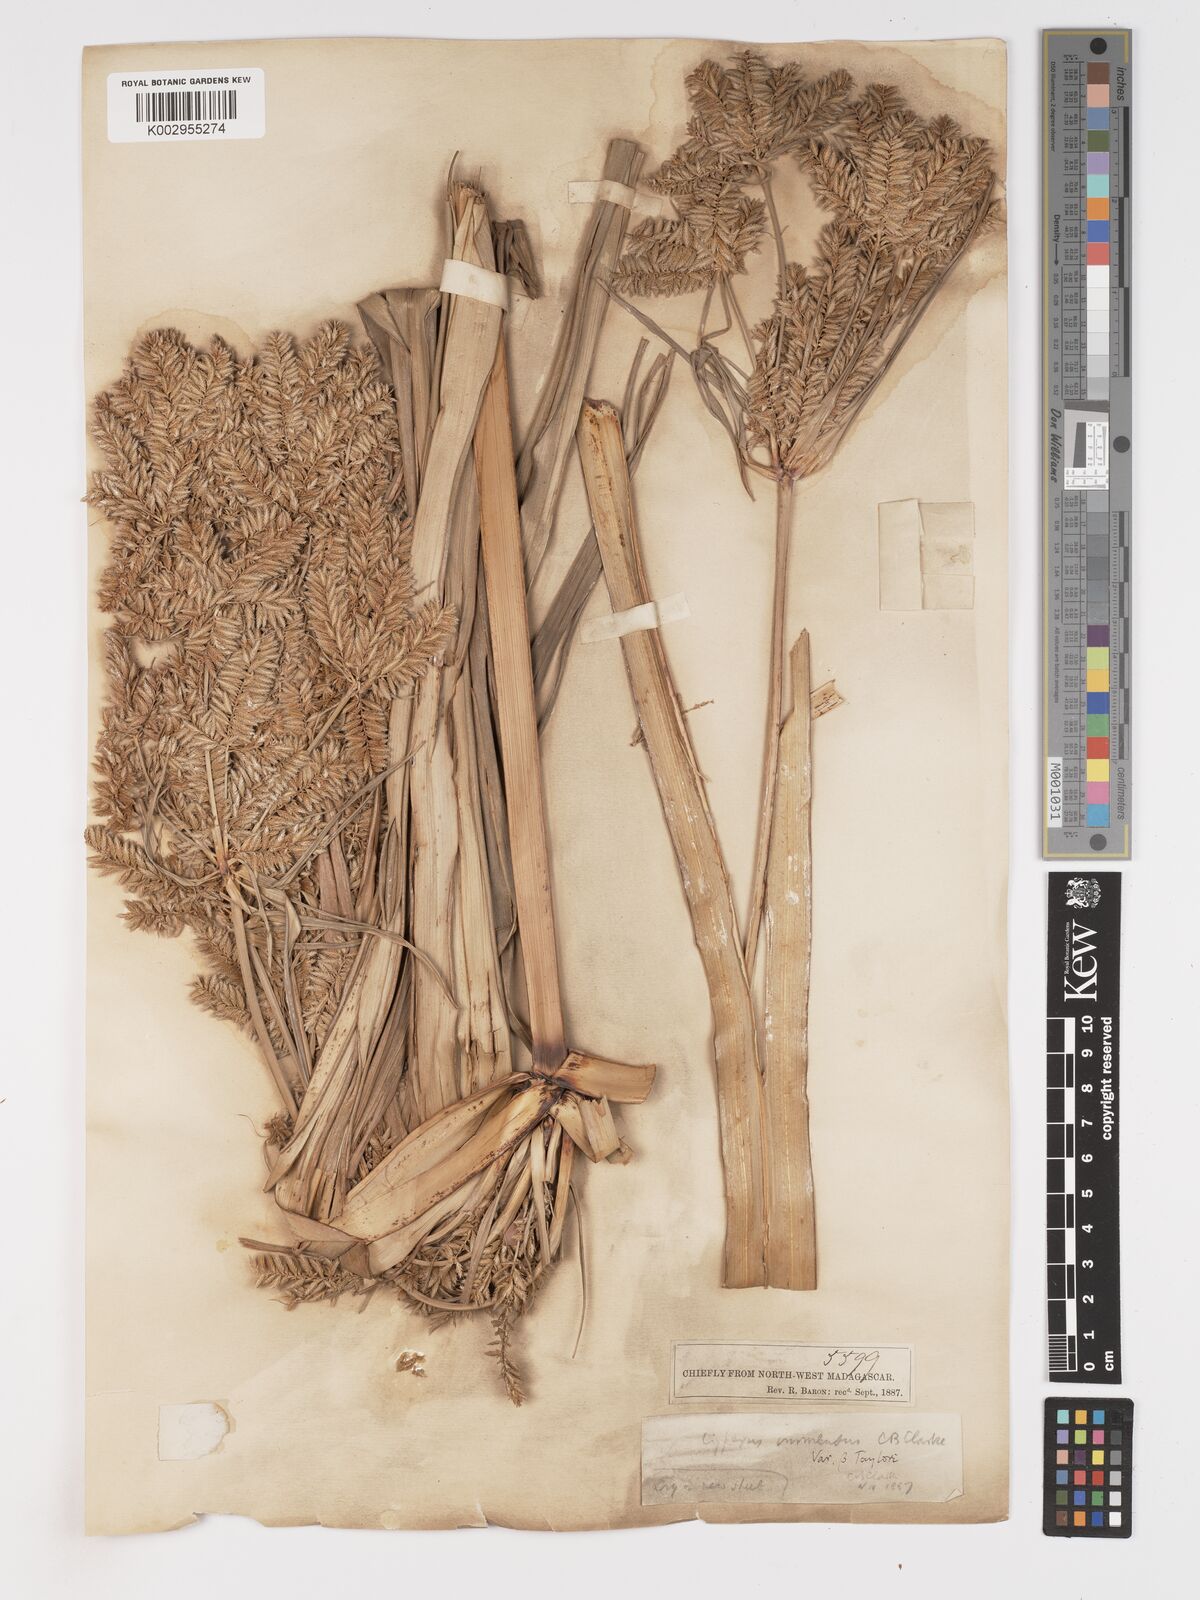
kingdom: Plantae
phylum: Tracheophyta
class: Liliopsida
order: Poales
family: Cyperaceae
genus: Cyperus
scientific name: Cyperus dives
